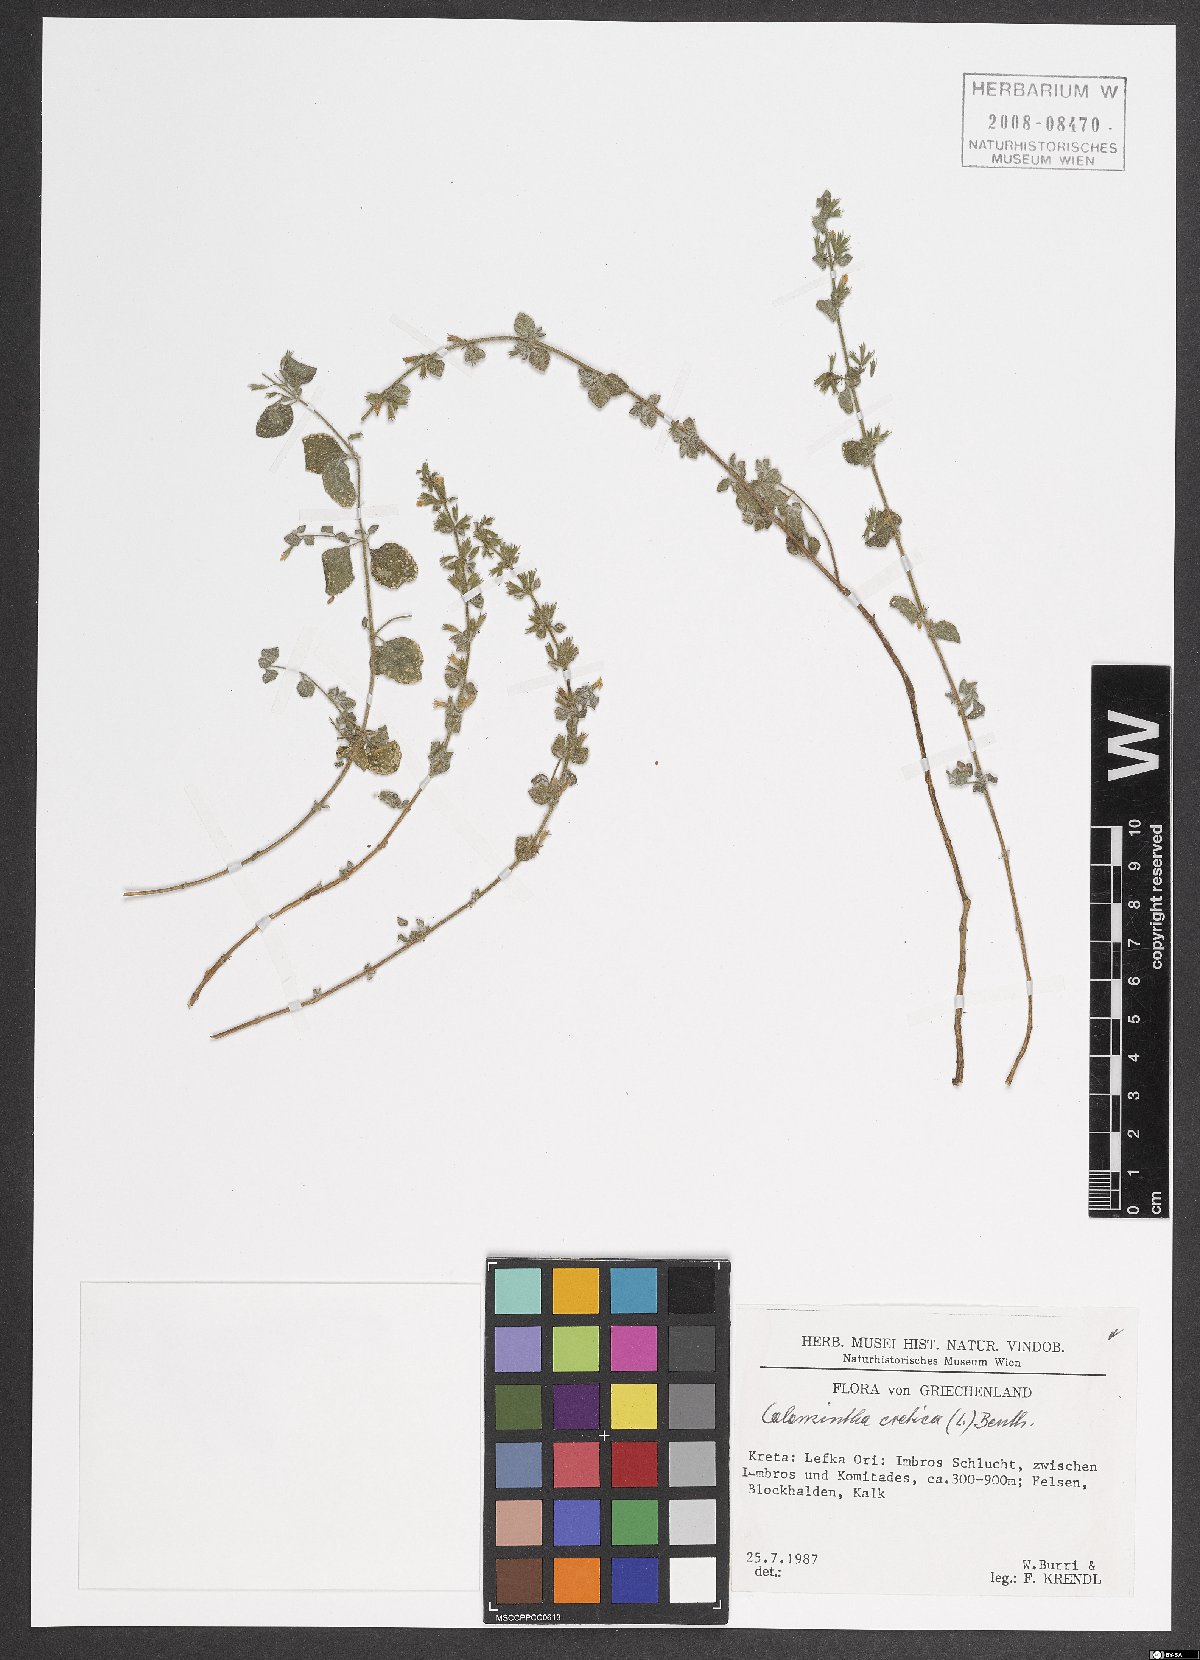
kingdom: Plantae
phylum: Tracheophyta
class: Magnoliopsida
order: Lamiales
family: Lamiaceae
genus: Clinopodium
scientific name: Clinopodium creticum
